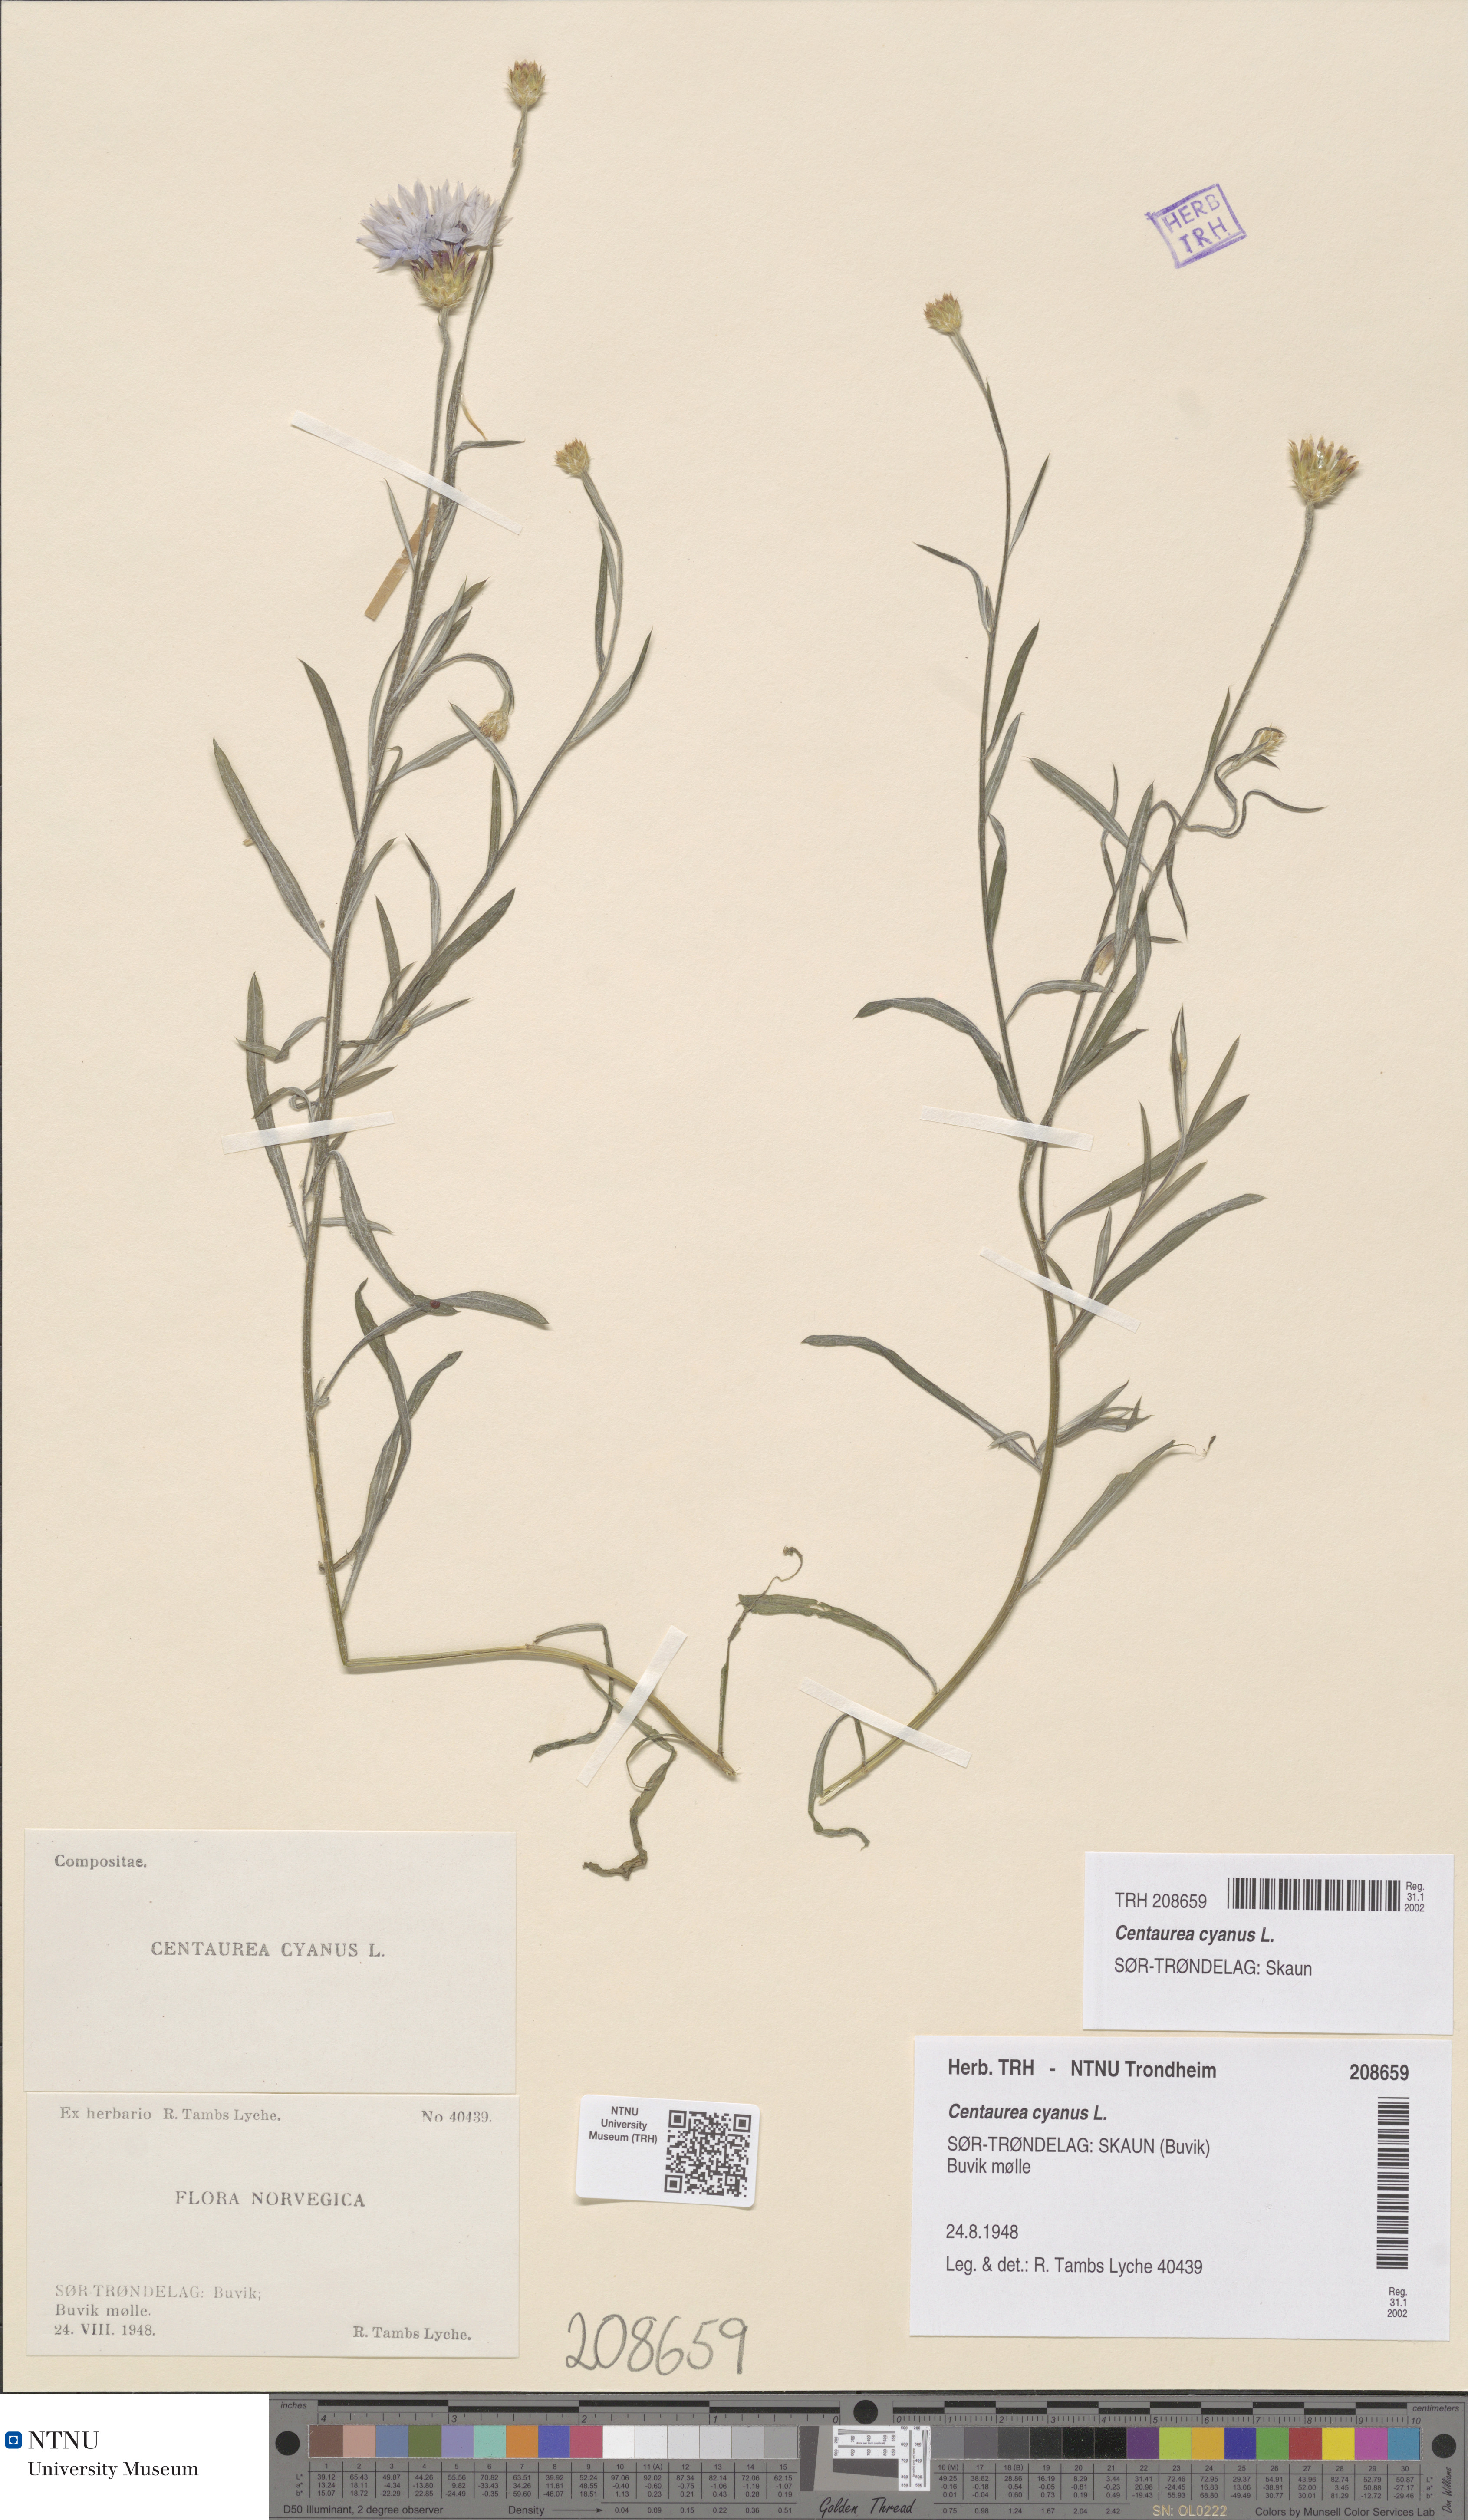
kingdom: Plantae
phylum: Tracheophyta
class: Magnoliopsida
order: Asterales
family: Asteraceae
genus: Centaurea
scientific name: Centaurea cyanus
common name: Cornflower
